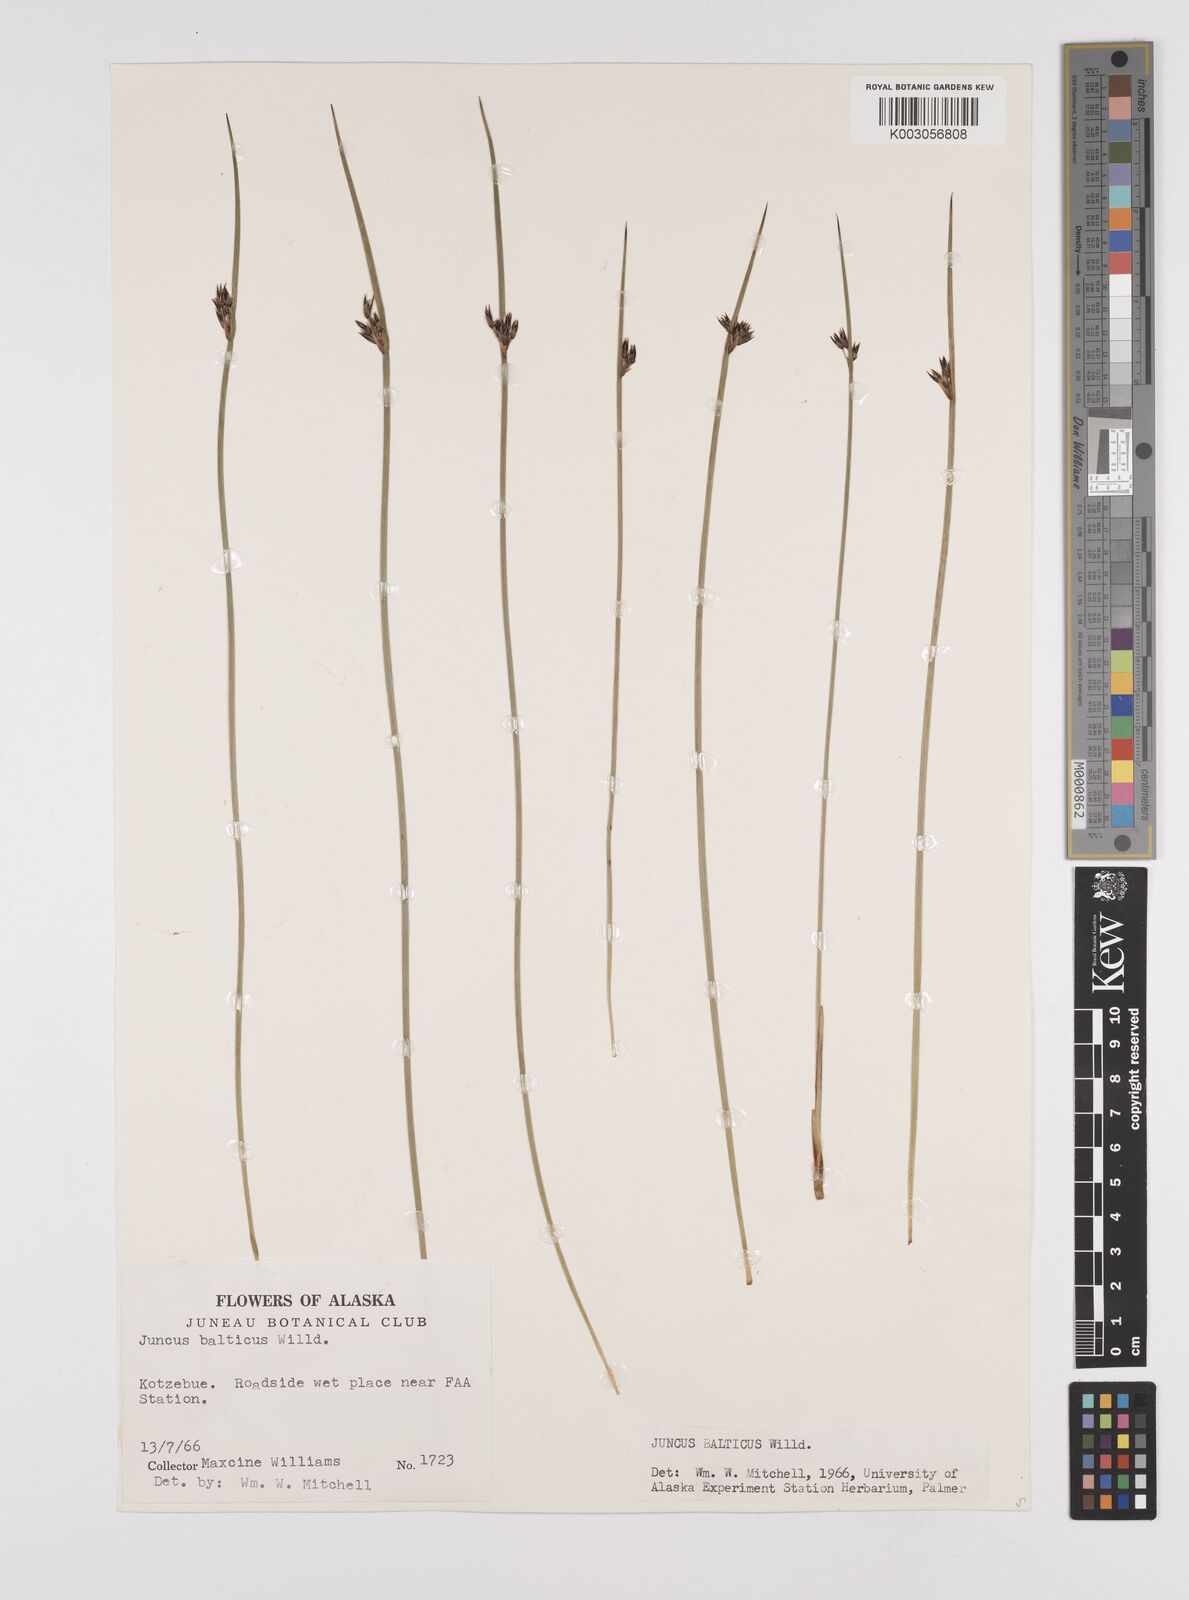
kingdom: Plantae
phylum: Tracheophyta
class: Liliopsida
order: Poales
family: Juncaceae
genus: Juncus
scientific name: Juncus balticus
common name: Baltic rush
